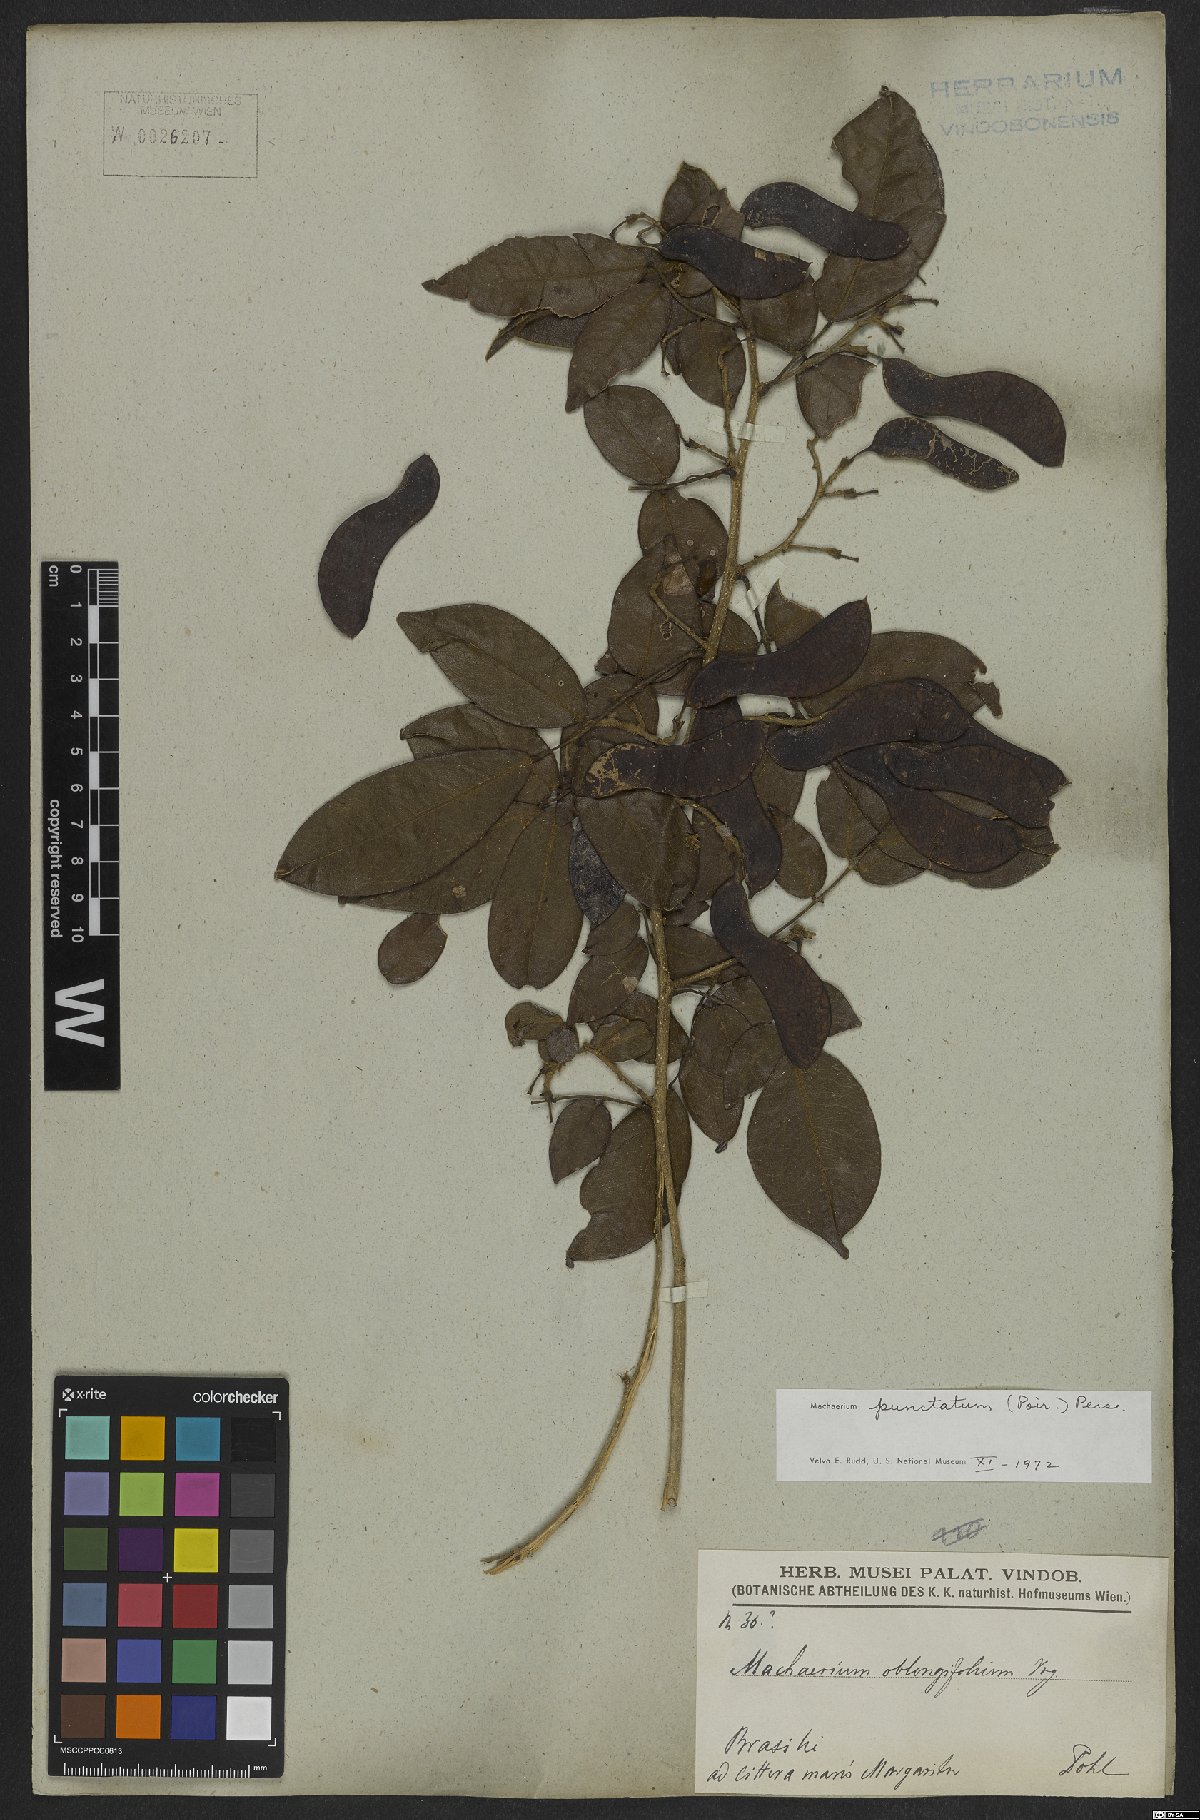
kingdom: Plantae
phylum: Tracheophyta
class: Magnoliopsida
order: Fabales
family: Fabaceae
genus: Machaerium
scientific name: Machaerium punctatum
